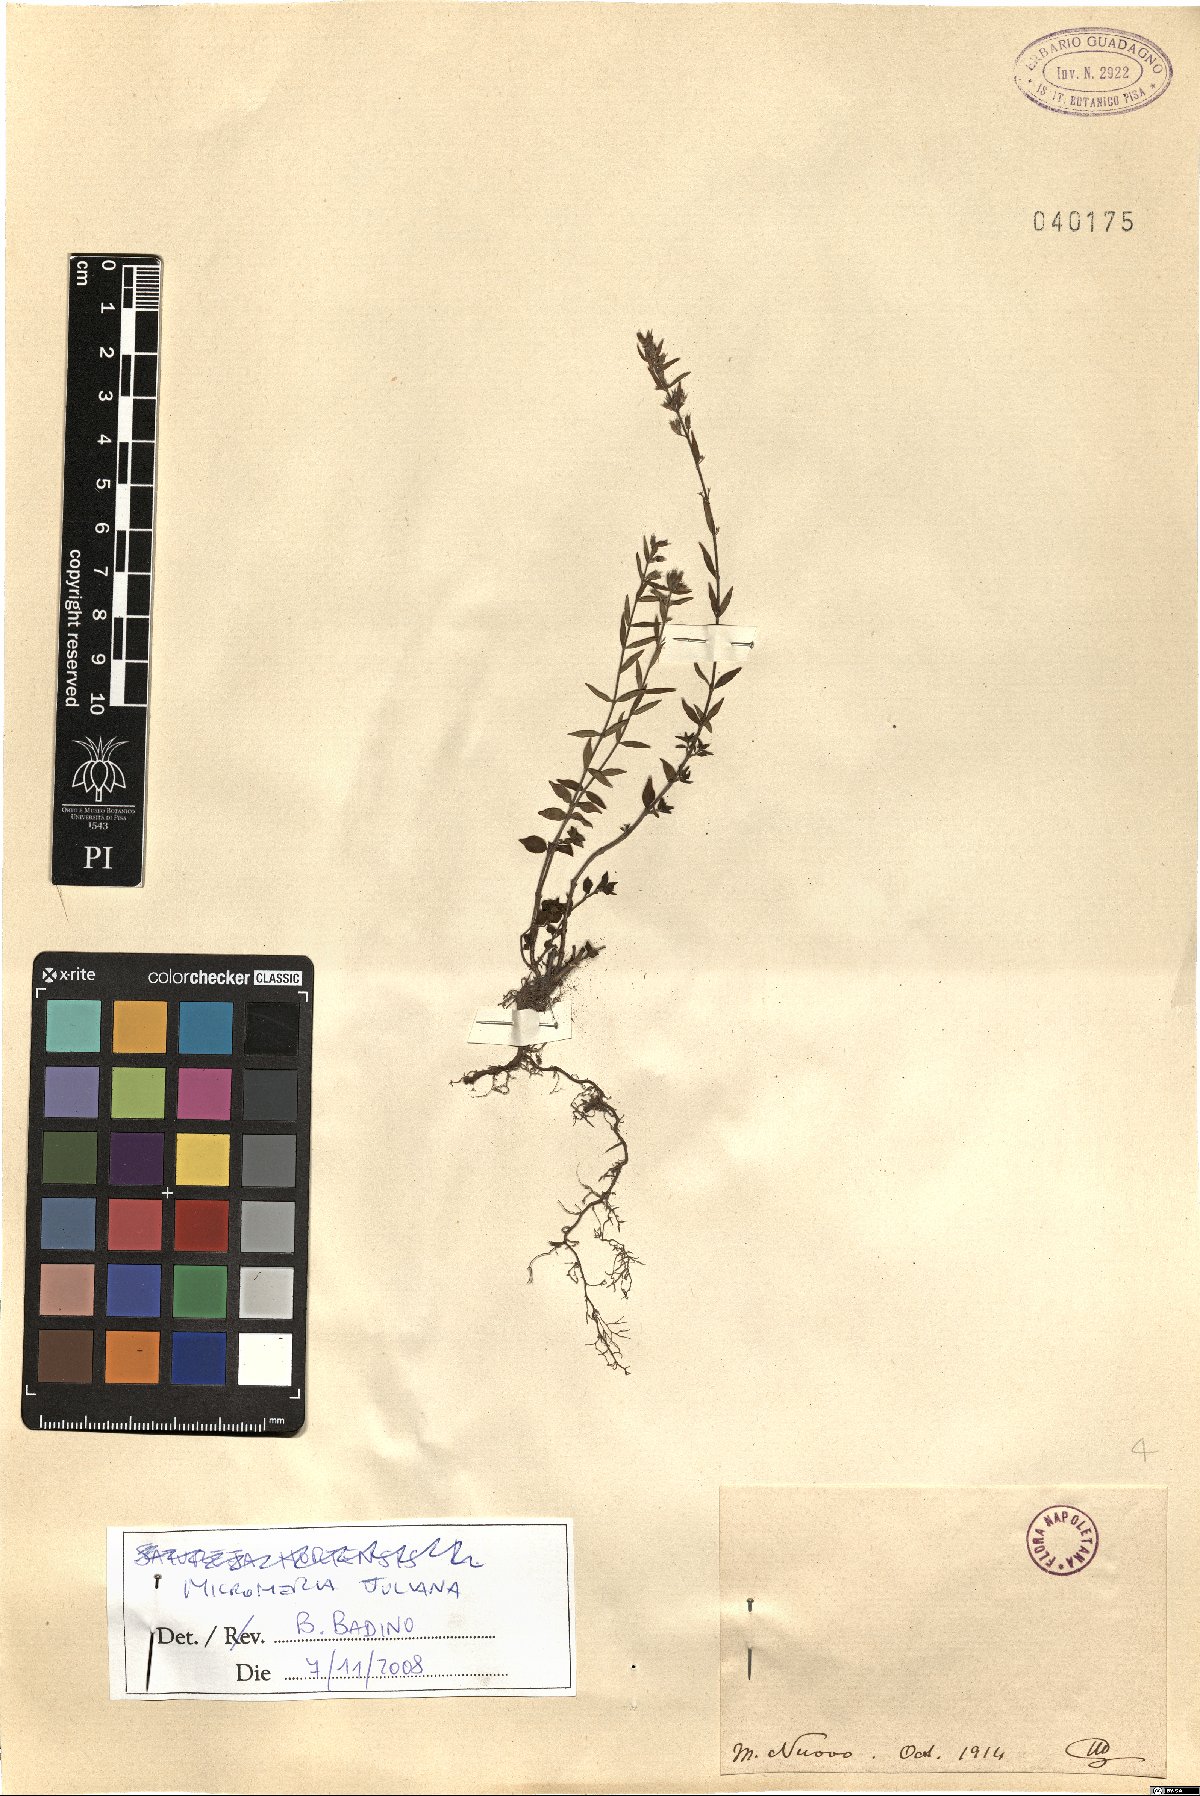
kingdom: Plantae
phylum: Tracheophyta
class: Magnoliopsida
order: Lamiales
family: Lamiaceae
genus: Micromeria
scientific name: Micromeria juliana
